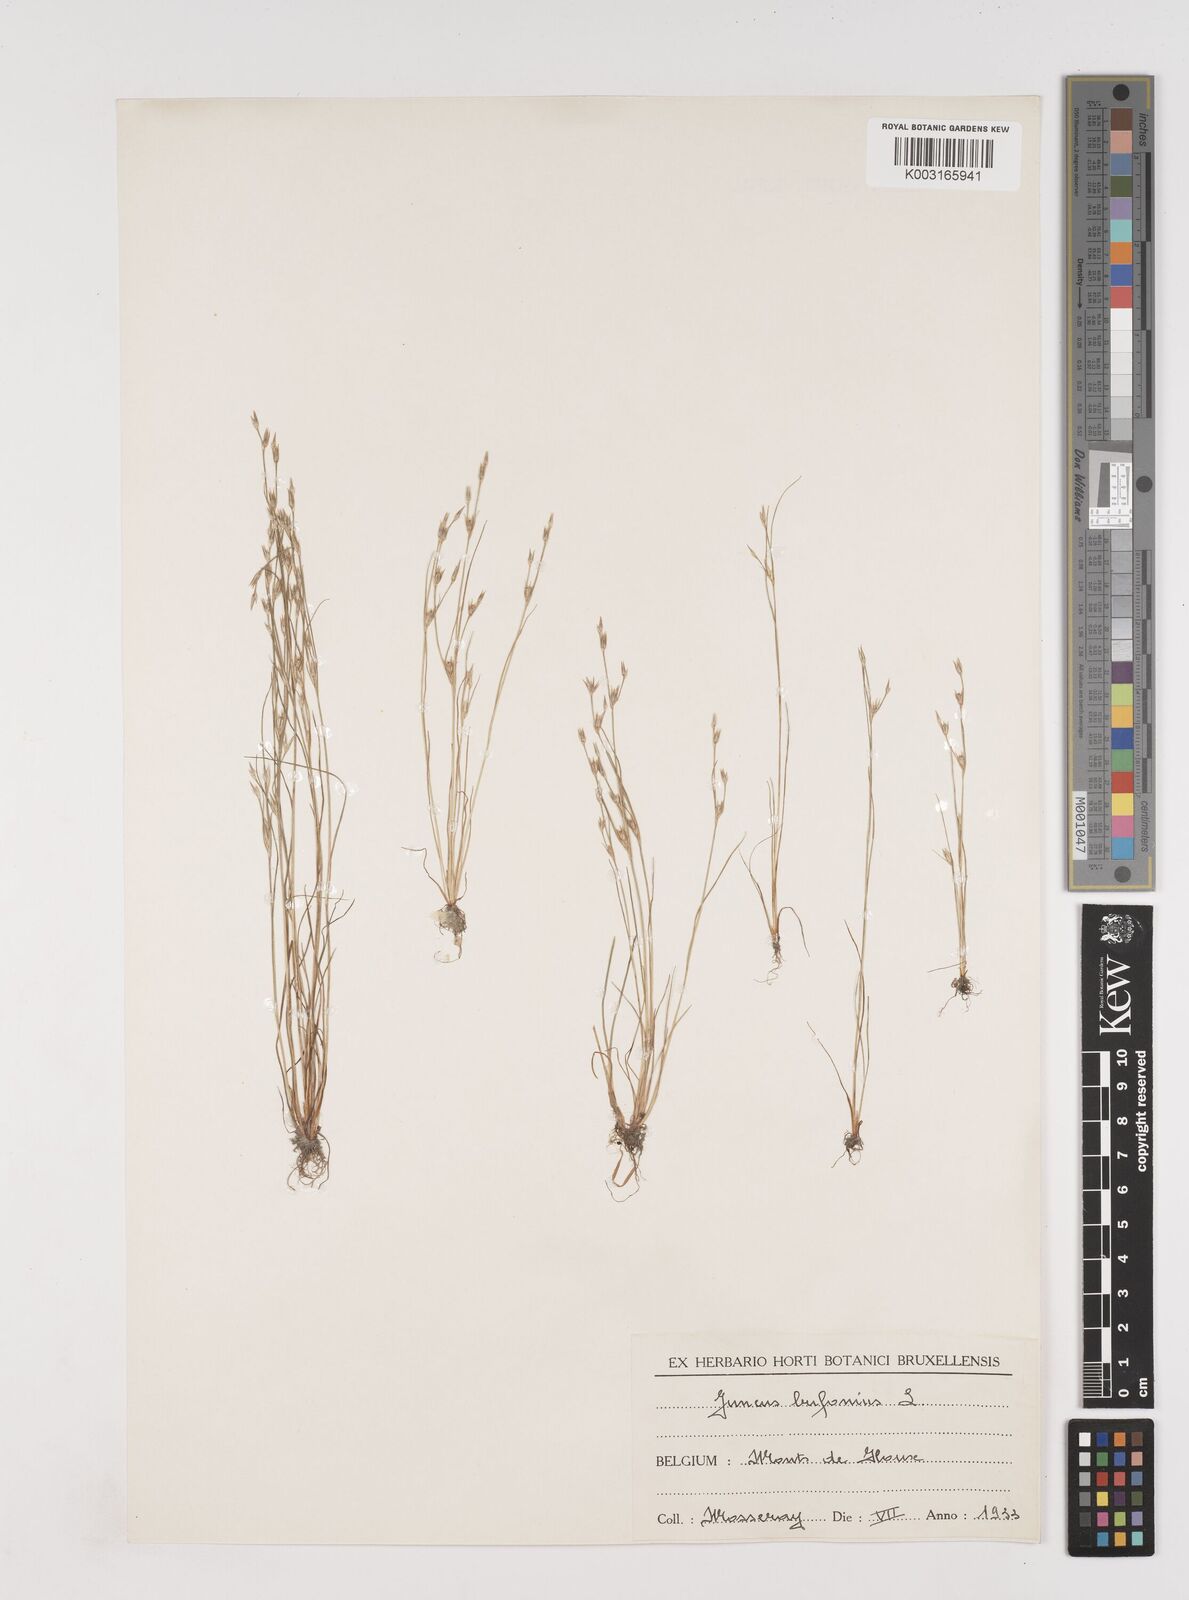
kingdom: Plantae
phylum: Tracheophyta
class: Liliopsida
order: Poales
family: Juncaceae
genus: Juncus
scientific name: Juncus bufonius
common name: Toad rush
